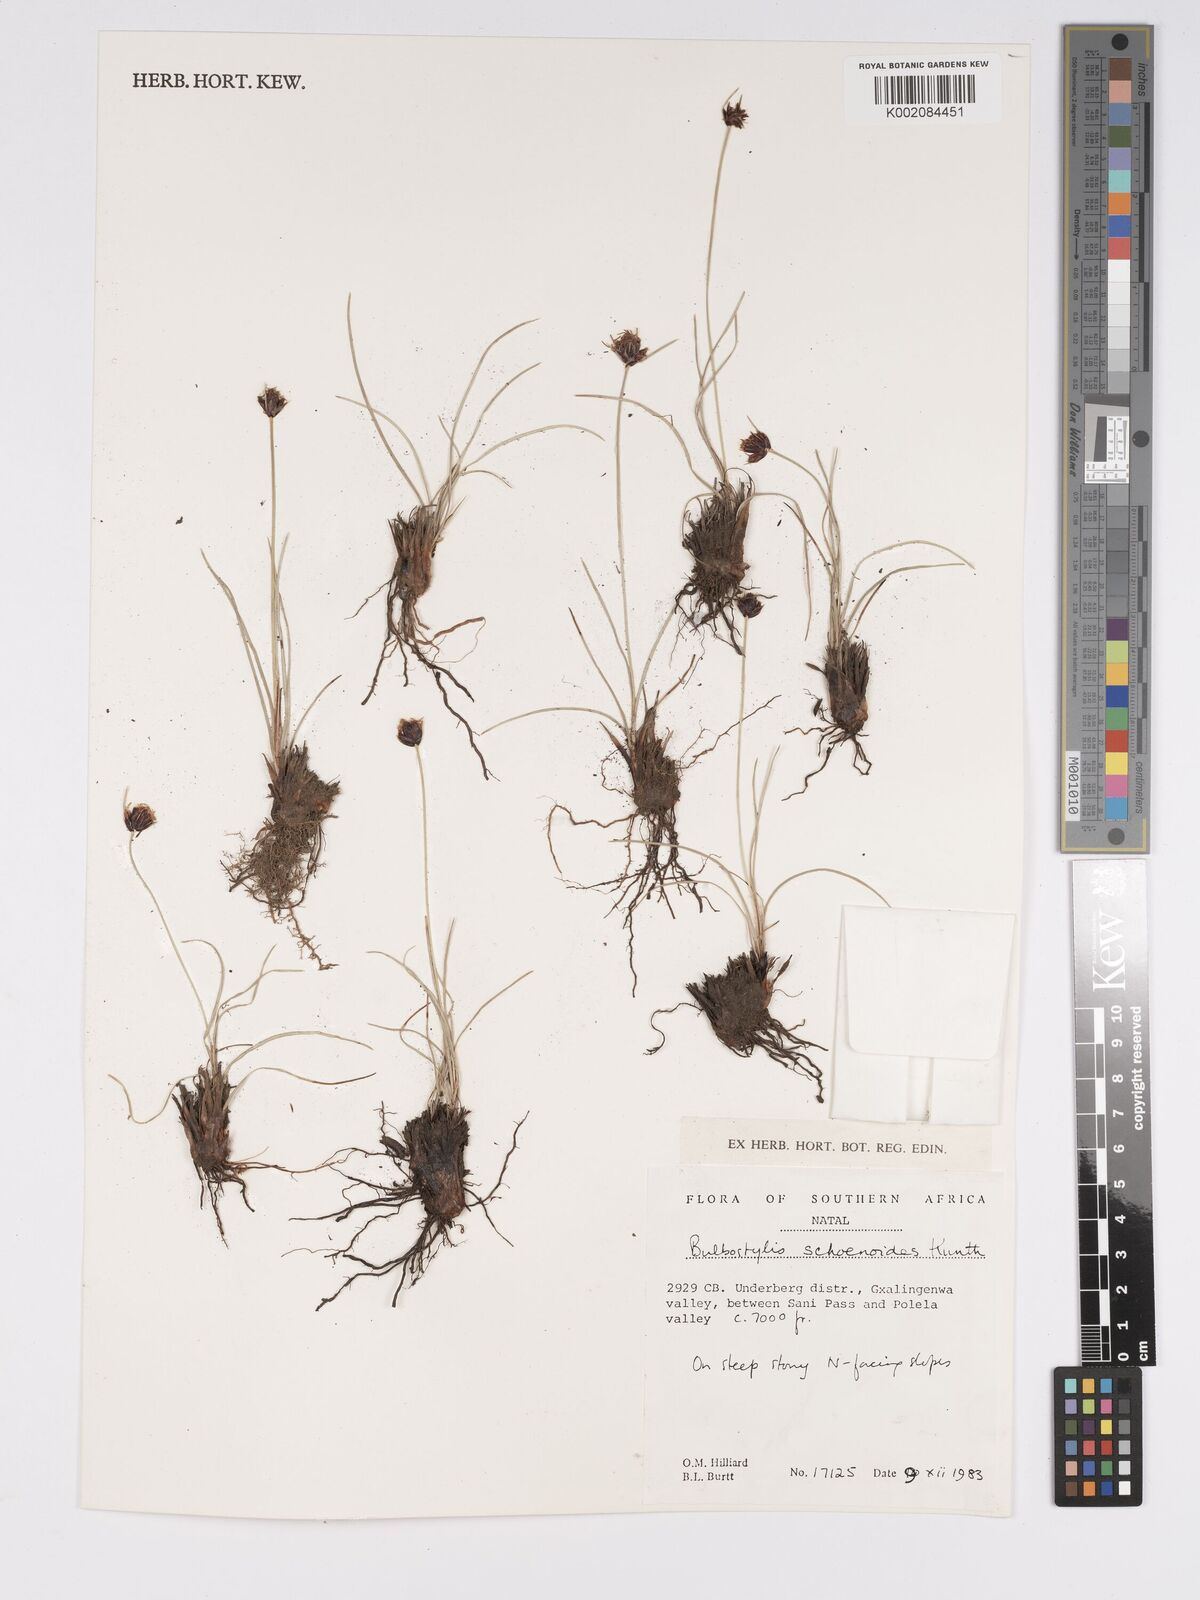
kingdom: Plantae
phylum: Tracheophyta
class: Liliopsida
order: Poales
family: Cyperaceae
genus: Bulbostylis
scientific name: Bulbostylis schoenoides
